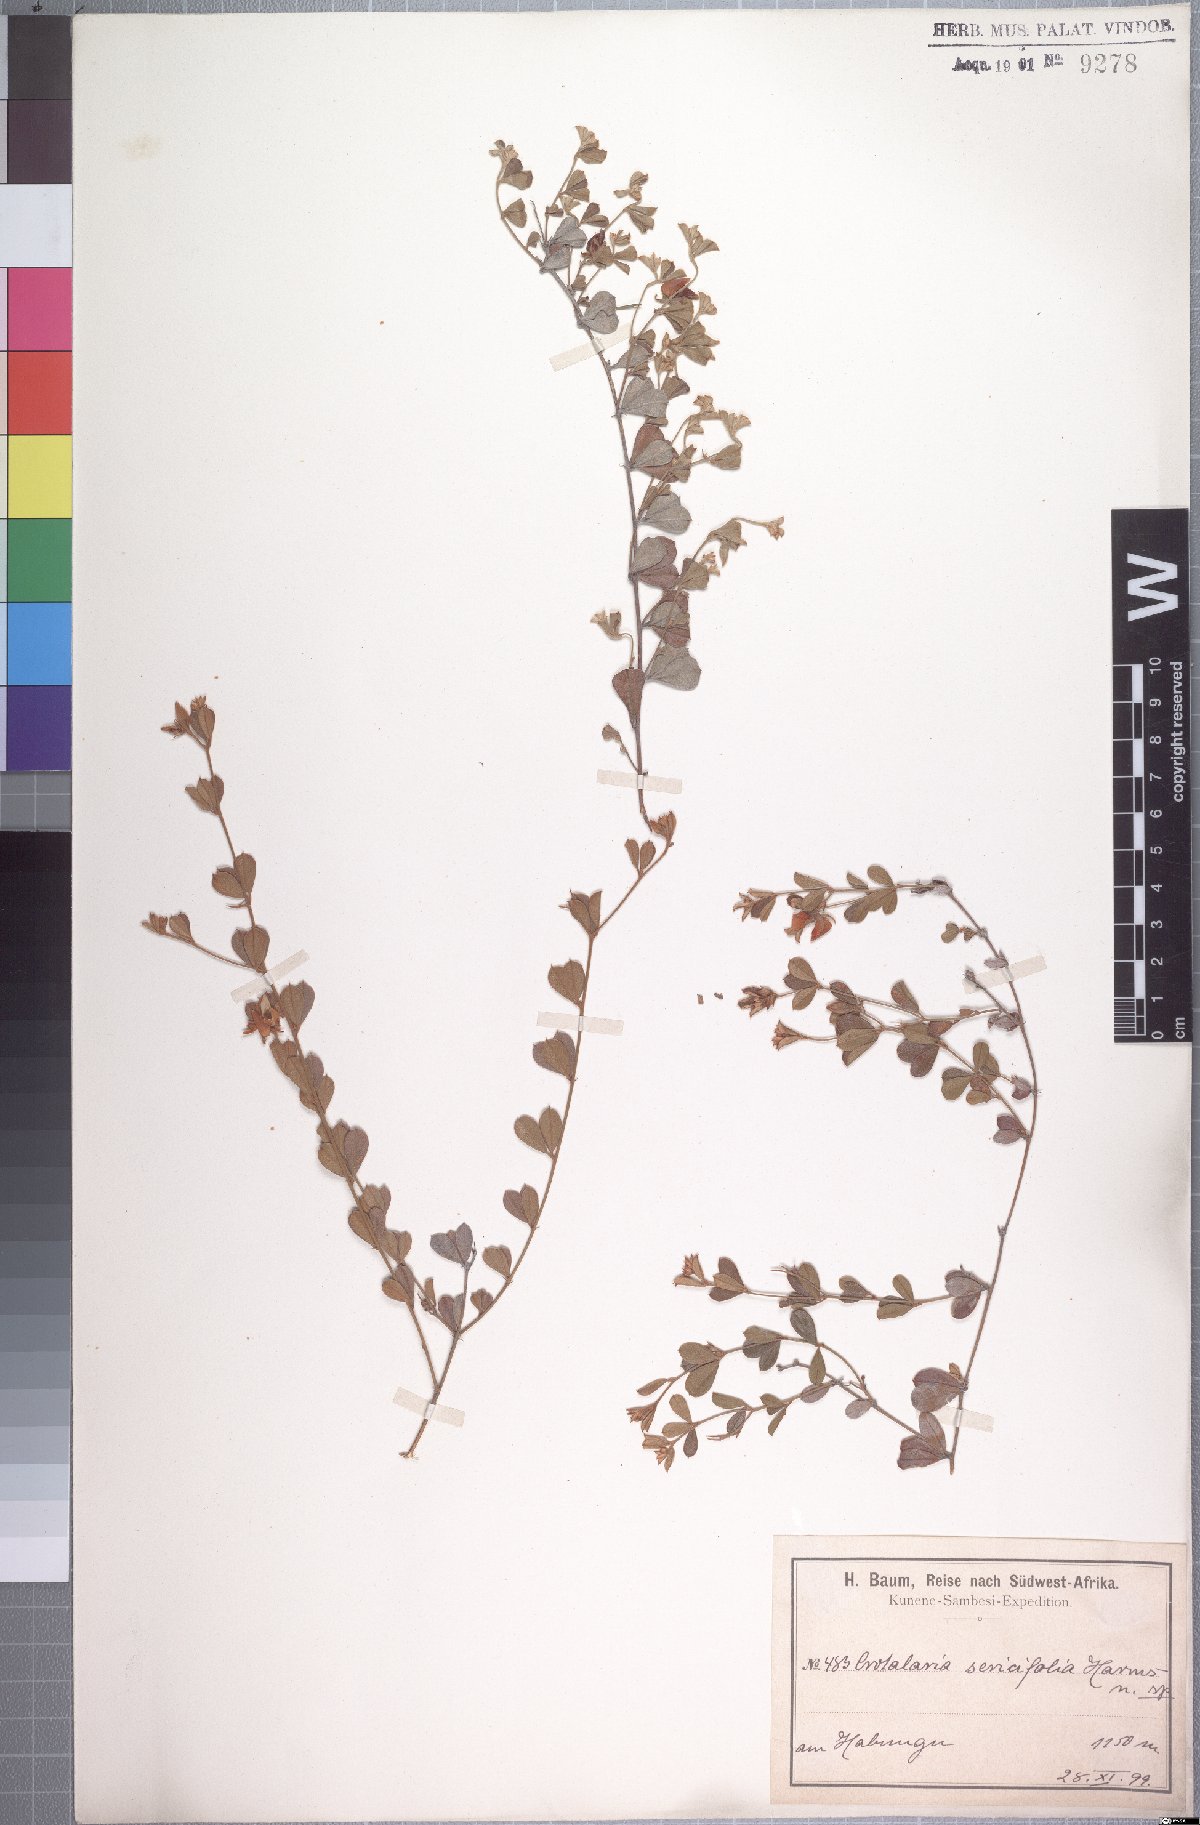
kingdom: Plantae
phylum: Tracheophyta
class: Magnoliopsida
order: Fabales
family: Fabaceae
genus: Crotalaria
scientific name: Crotalaria sericifolia
